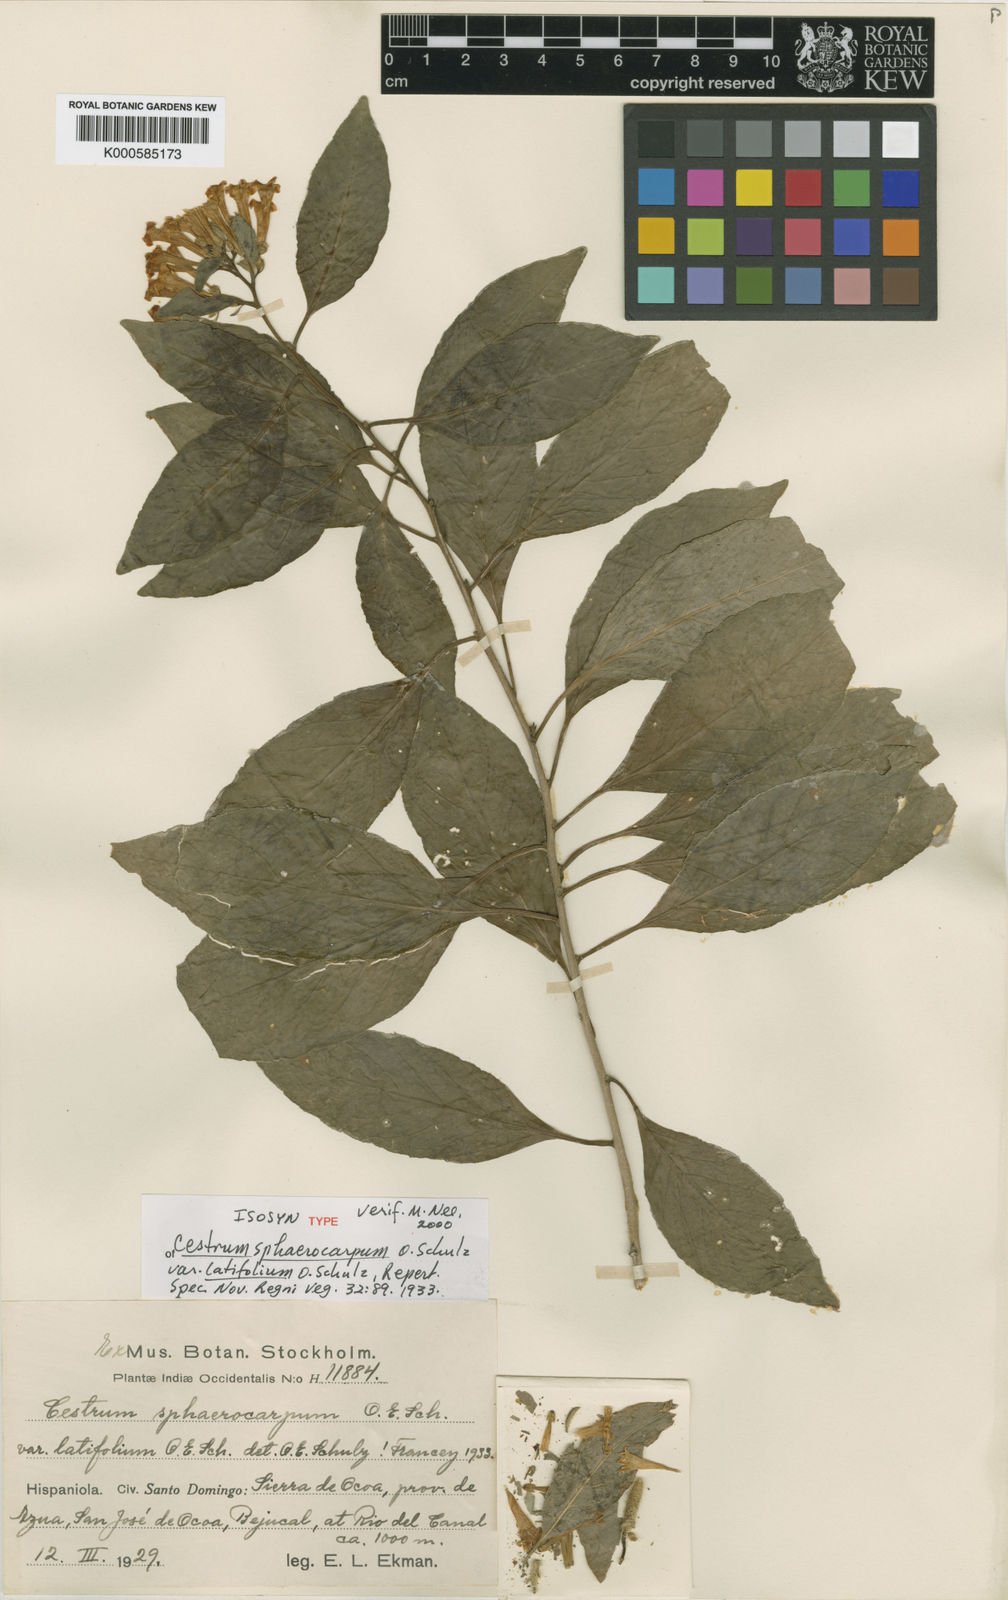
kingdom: Plantae
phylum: Tracheophyta
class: Magnoliopsida
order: Solanales
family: Solanaceae
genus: Cestrum
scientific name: Cestrum sphaerocarpum
